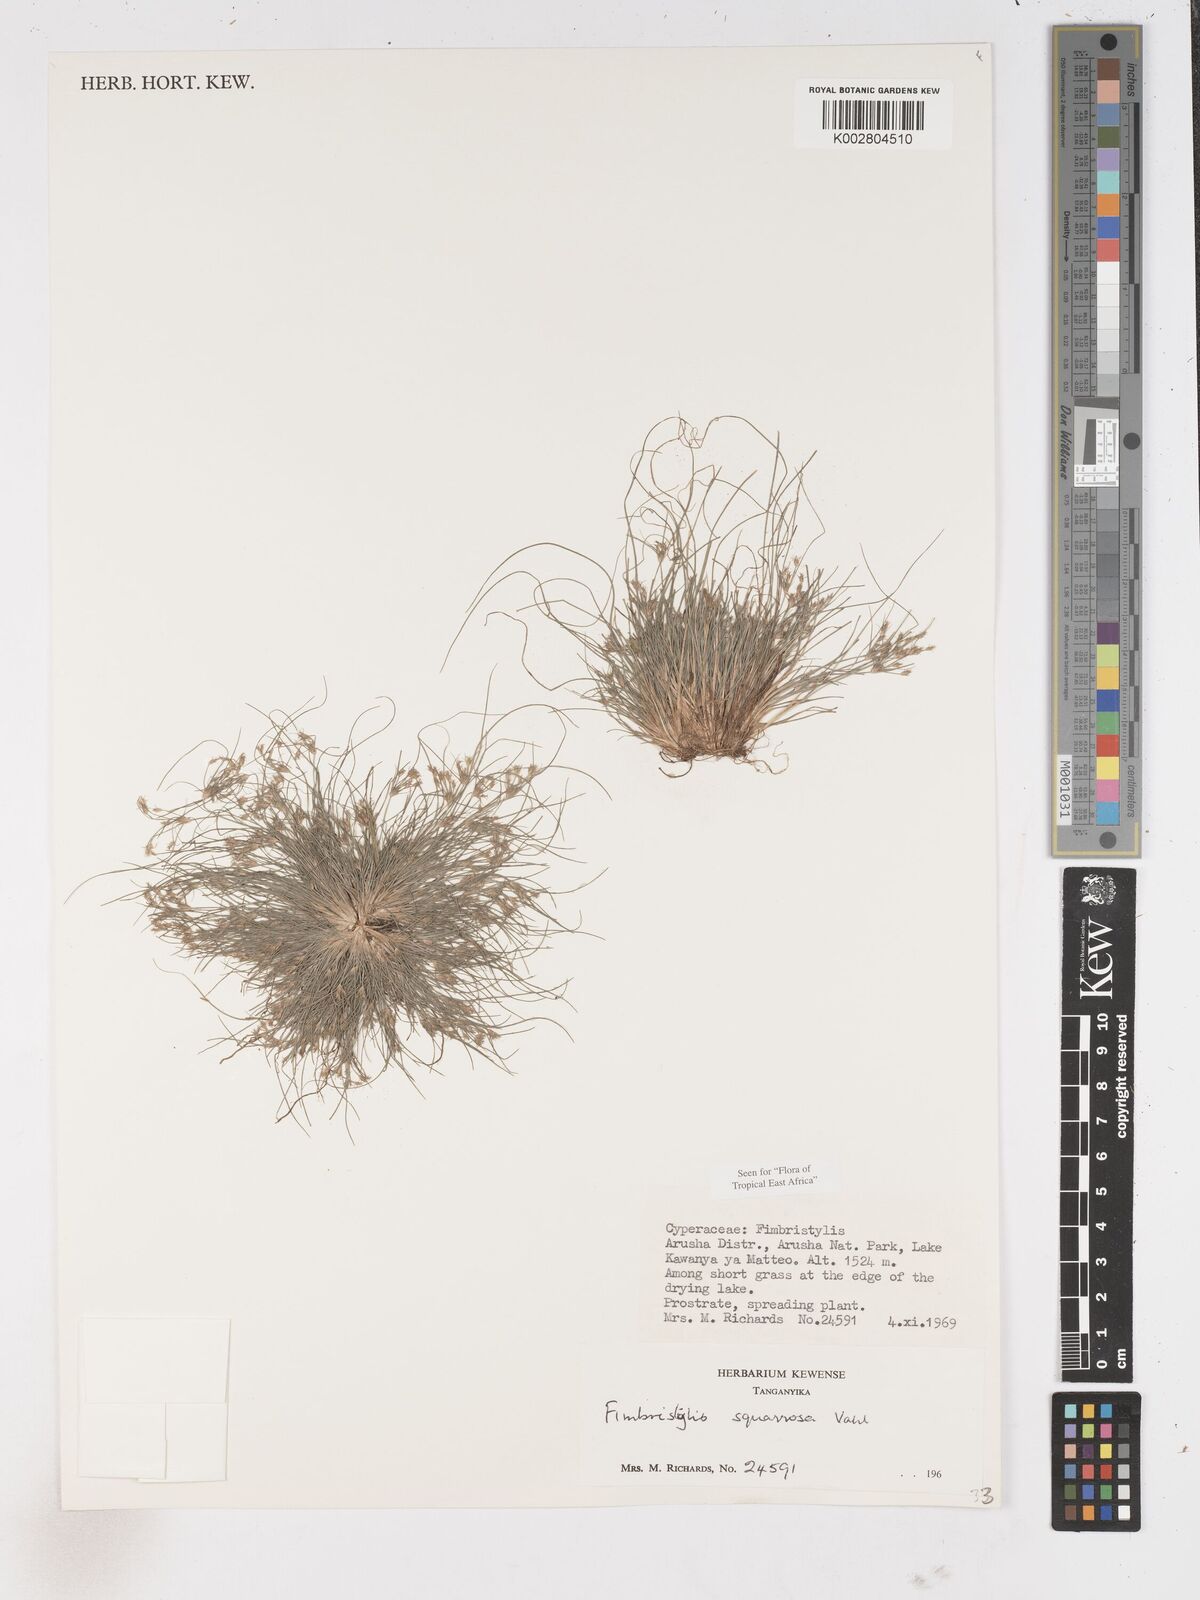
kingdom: Plantae
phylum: Tracheophyta
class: Liliopsida
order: Poales
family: Cyperaceae
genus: Fimbristylis
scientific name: Fimbristylis squarrosa
